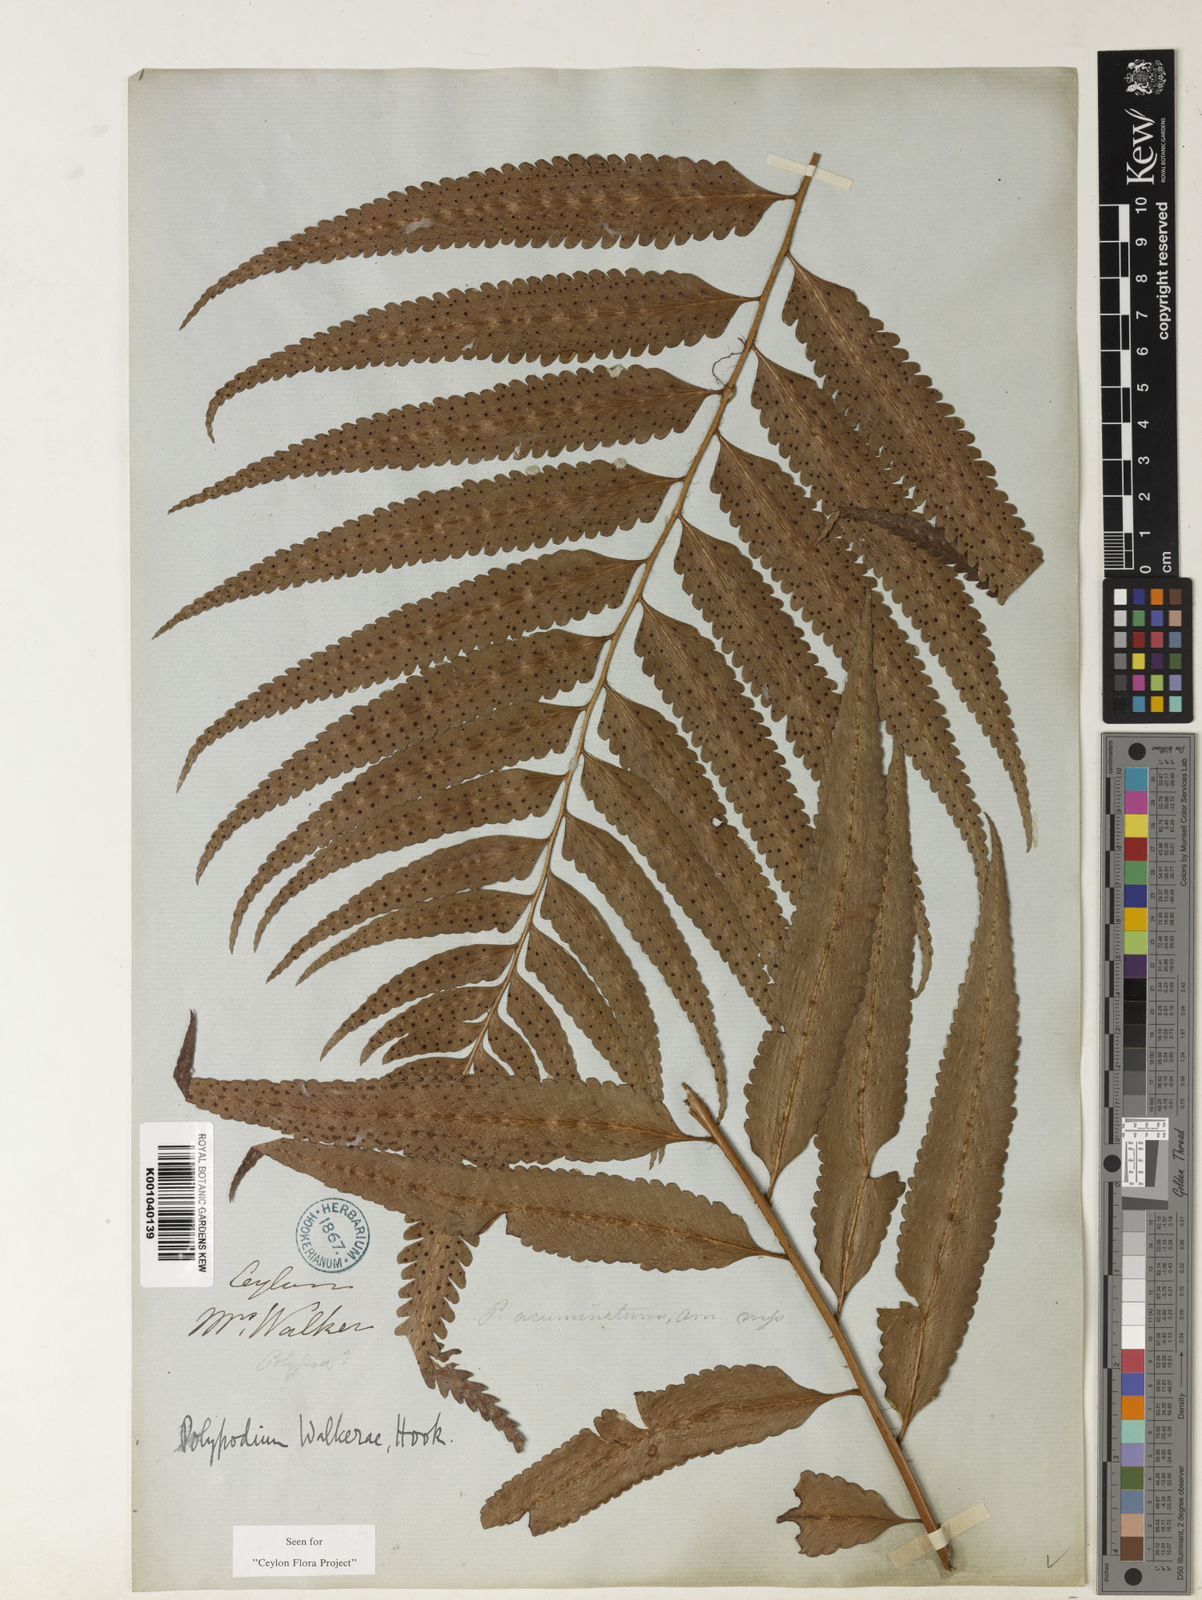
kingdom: Plantae
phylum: Tracheophyta
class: Polypodiopsida
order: Polypodiales
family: Dryopteridaceae
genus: Polystichum
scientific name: Polystichum walkerae
